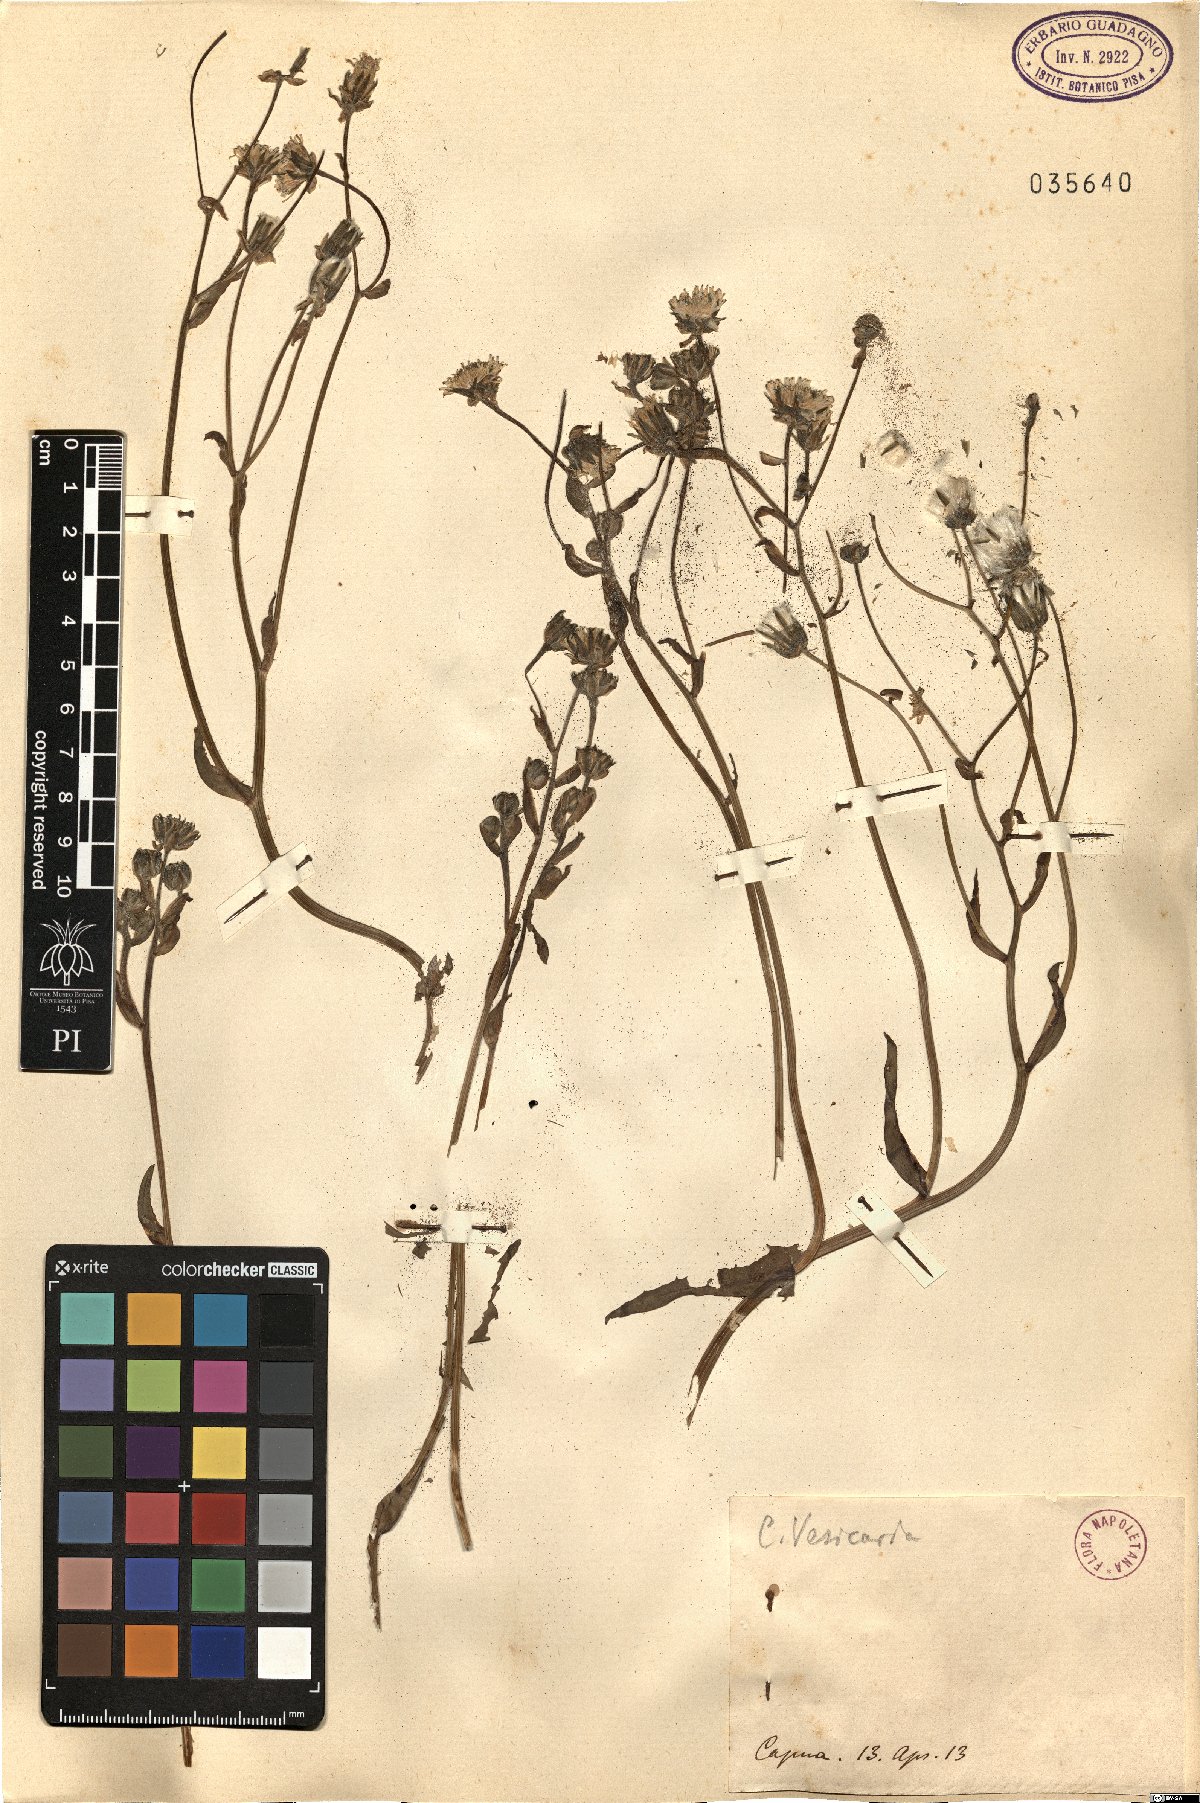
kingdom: Plantae
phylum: Tracheophyta
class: Magnoliopsida
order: Asterales
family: Asteraceae
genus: Crepis
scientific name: Crepis vesicaria
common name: Beaked hawksbeard
